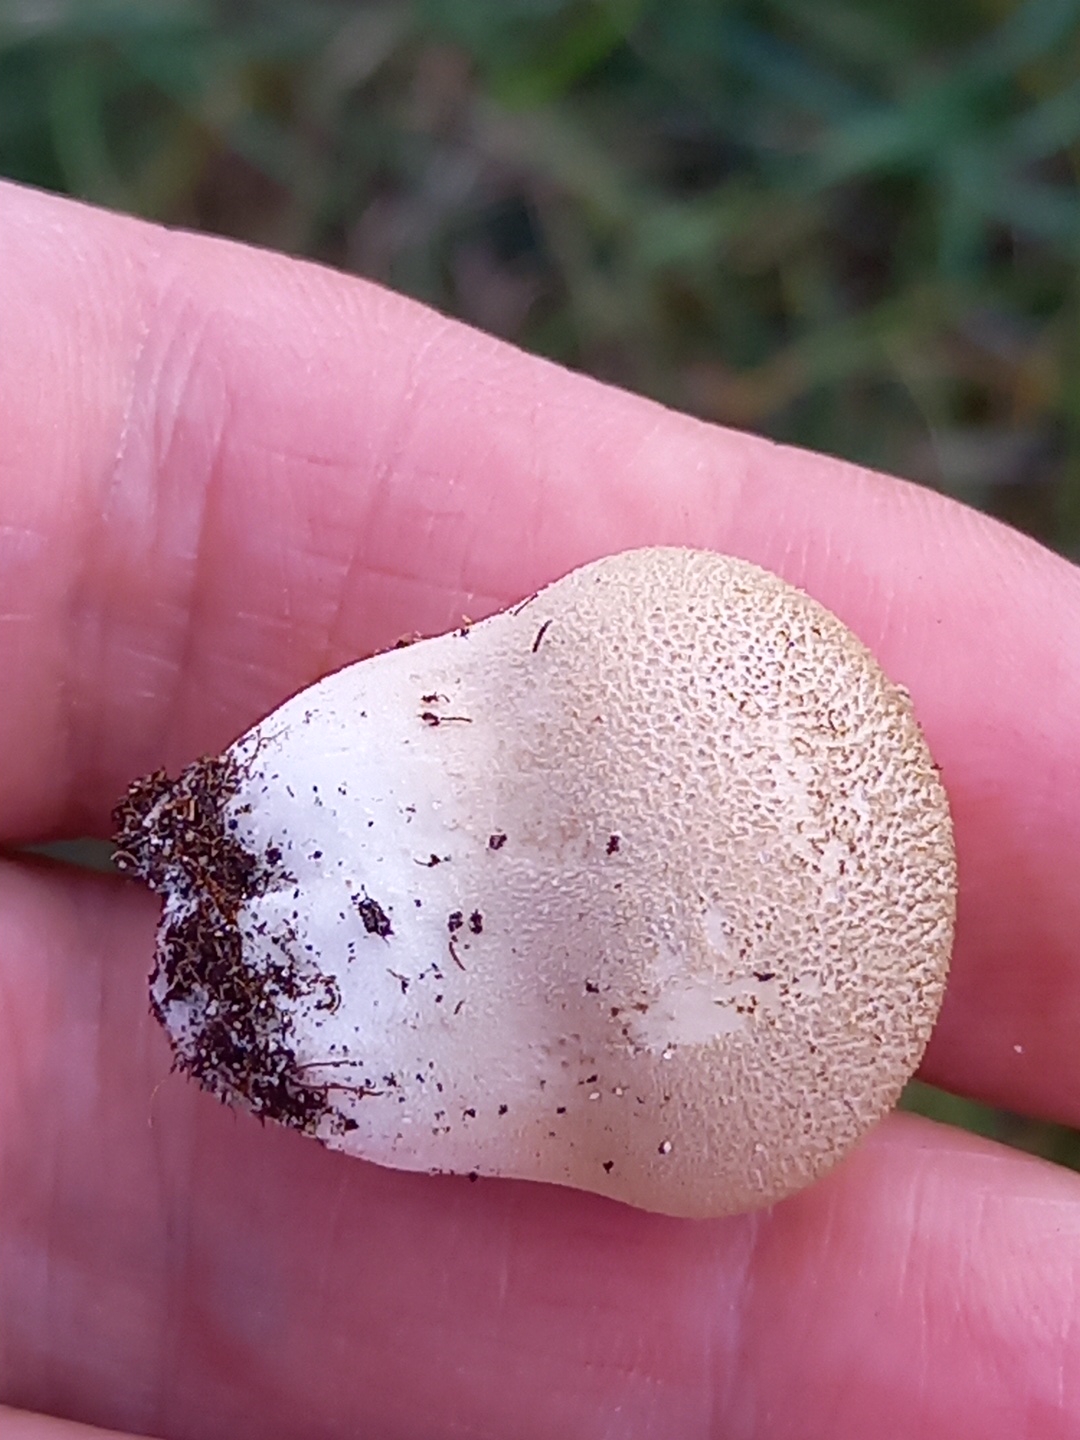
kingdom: Fungi
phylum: Basidiomycota
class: Agaricomycetes
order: Agaricales
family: Lycoperdaceae
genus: Lycoperdon
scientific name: Lycoperdon lividum
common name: mark-støvbold
